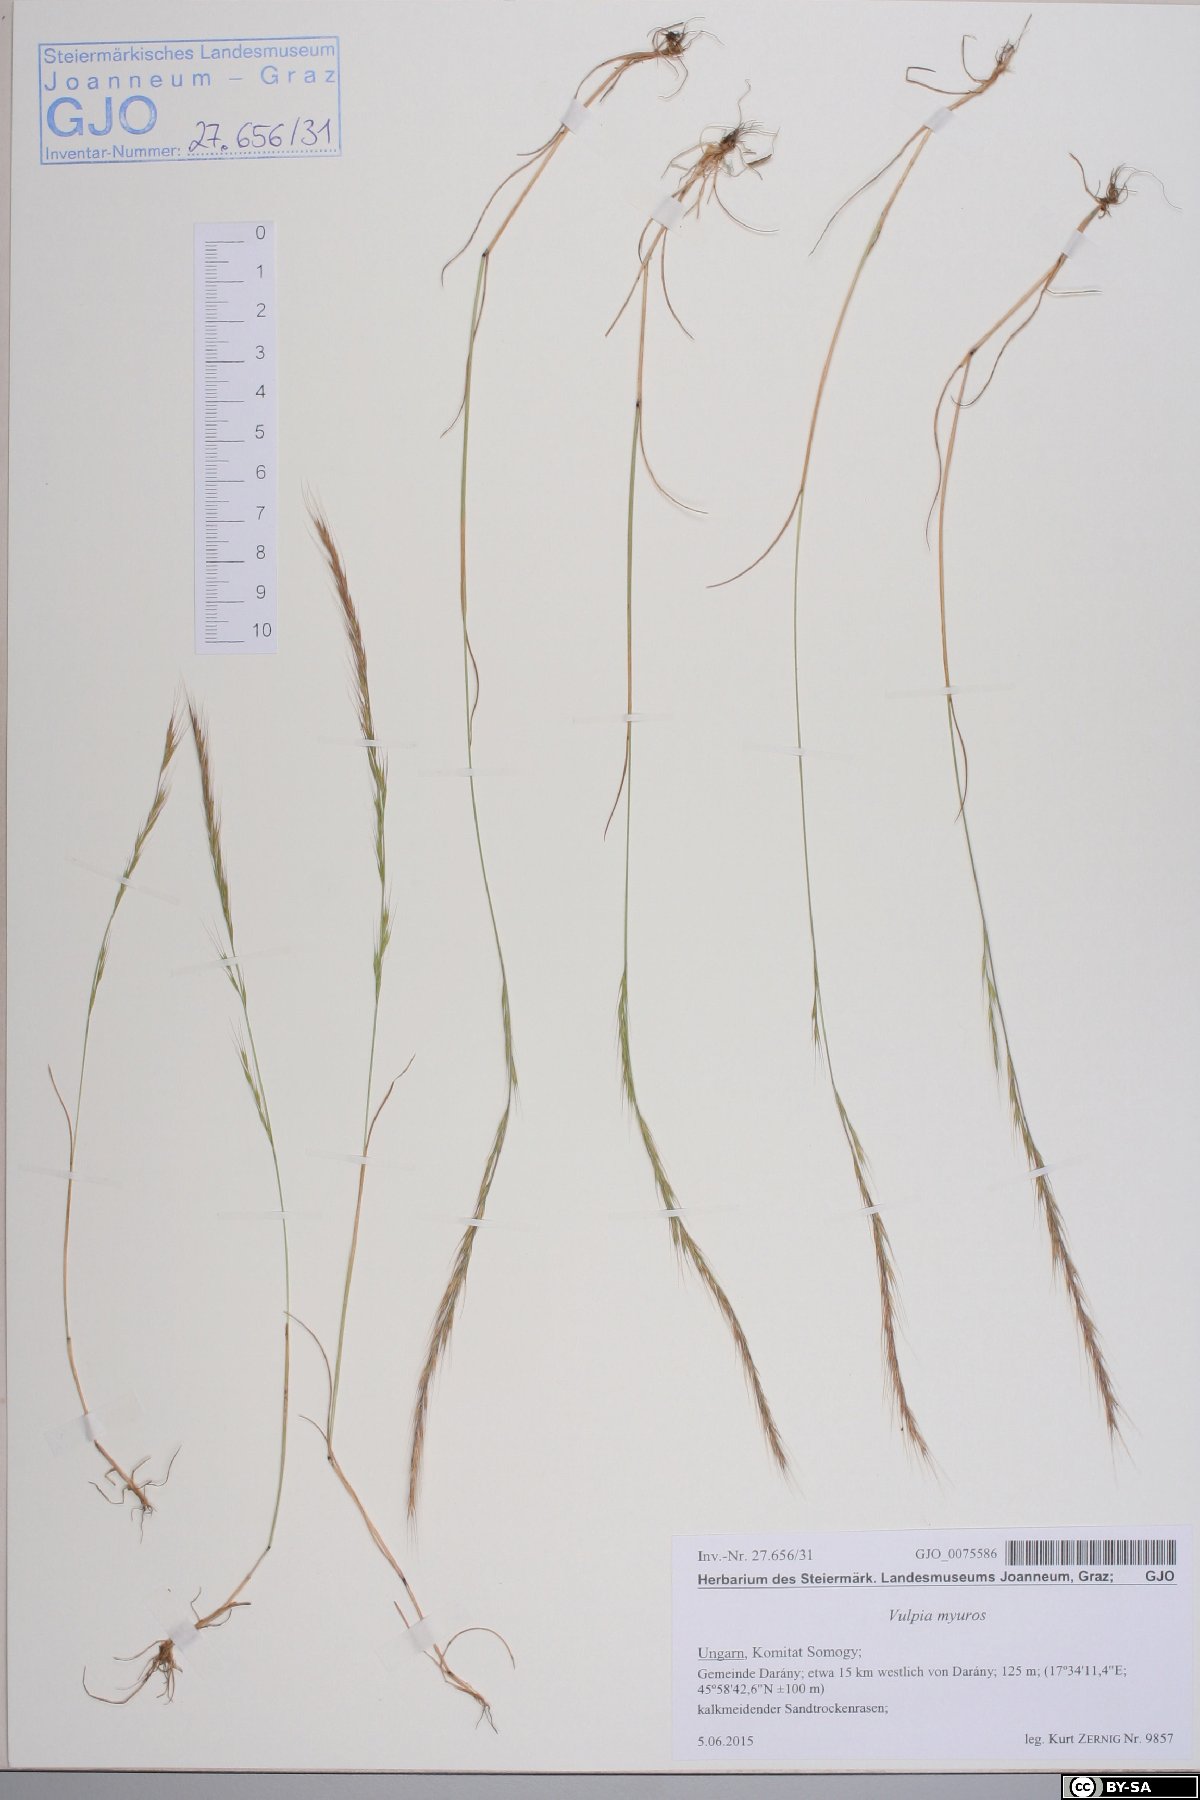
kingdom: Plantae
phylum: Tracheophyta
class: Liliopsida
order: Poales
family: Poaceae
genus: Festuca
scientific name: Festuca myuros
